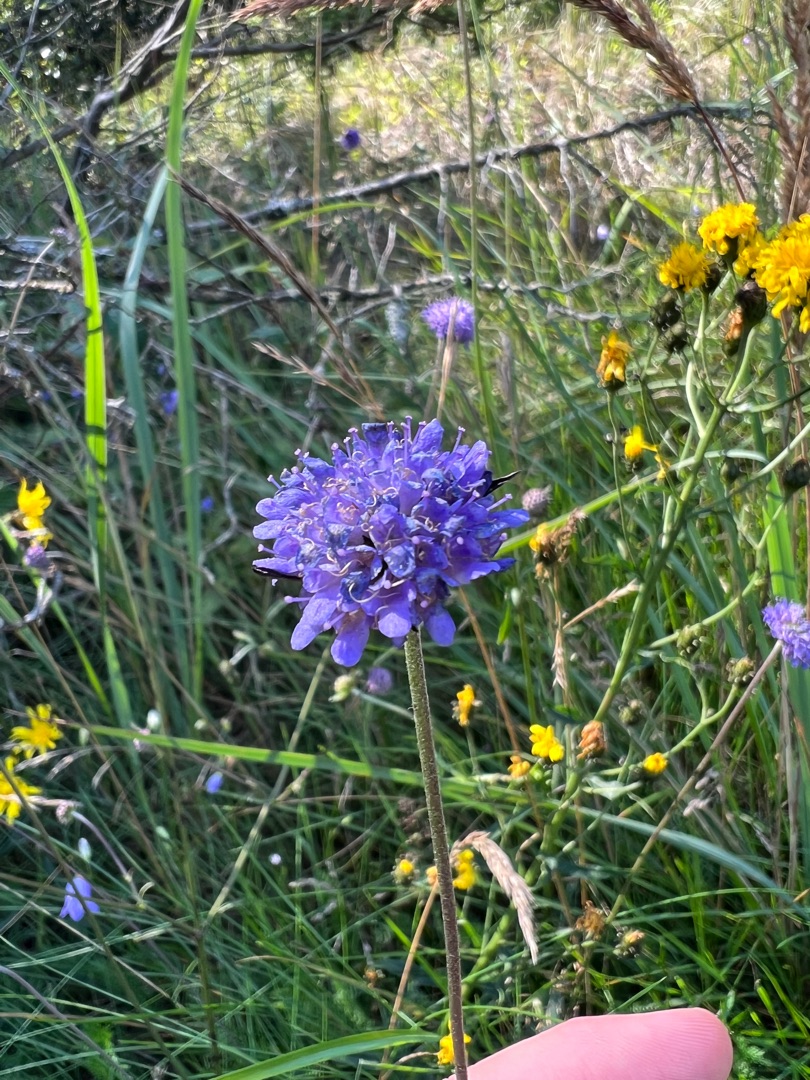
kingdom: Plantae
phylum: Tracheophyta
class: Magnoliopsida
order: Dipsacales
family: Caprifoliaceae
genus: Succisa
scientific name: Succisa pratensis
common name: Djævelsbid
